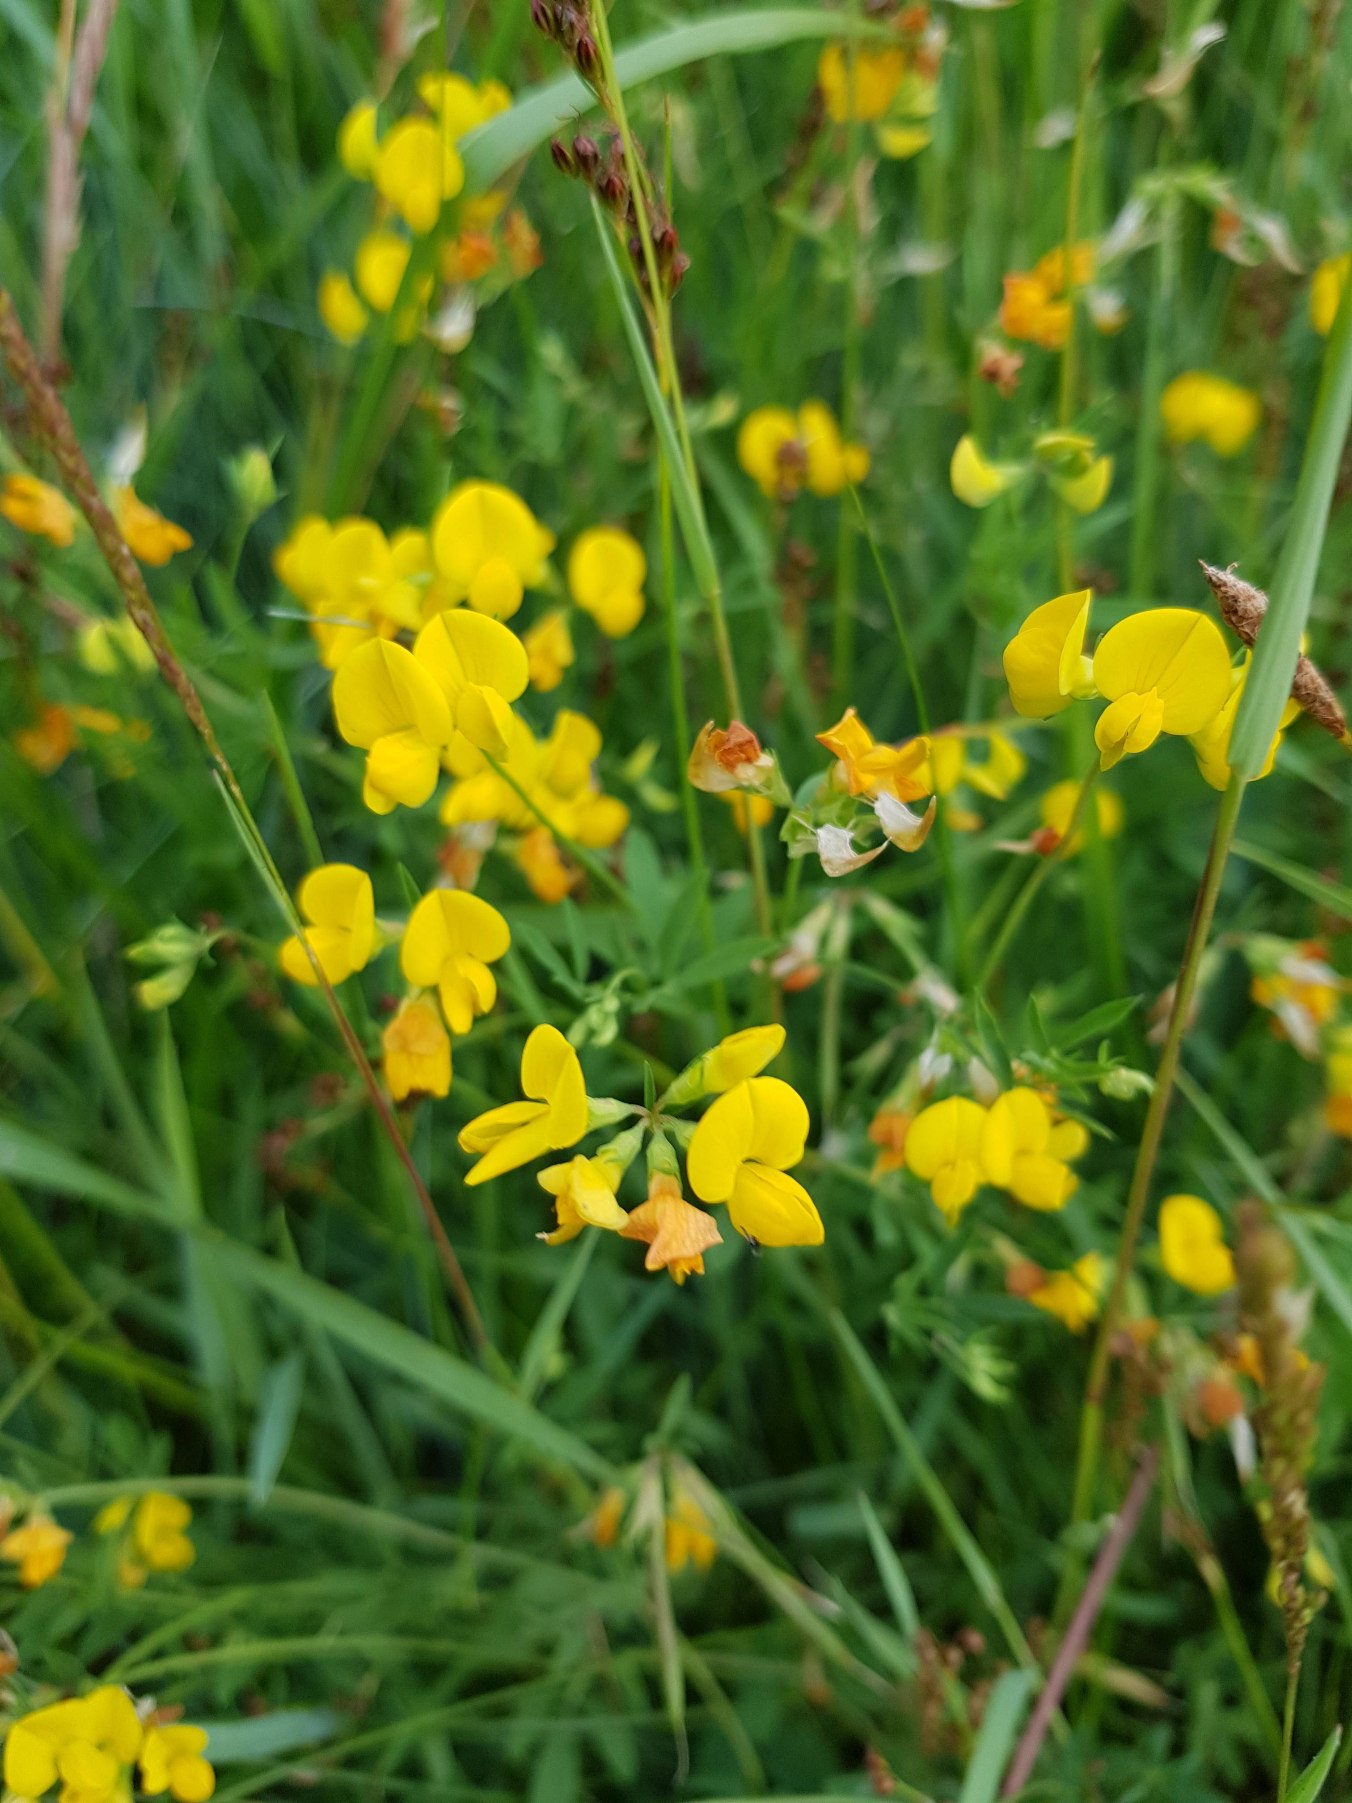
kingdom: Plantae
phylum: Tracheophyta
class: Magnoliopsida
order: Fabales
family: Fabaceae
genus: Lotus
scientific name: Lotus corniculatus
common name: Almindelig kællingetand
